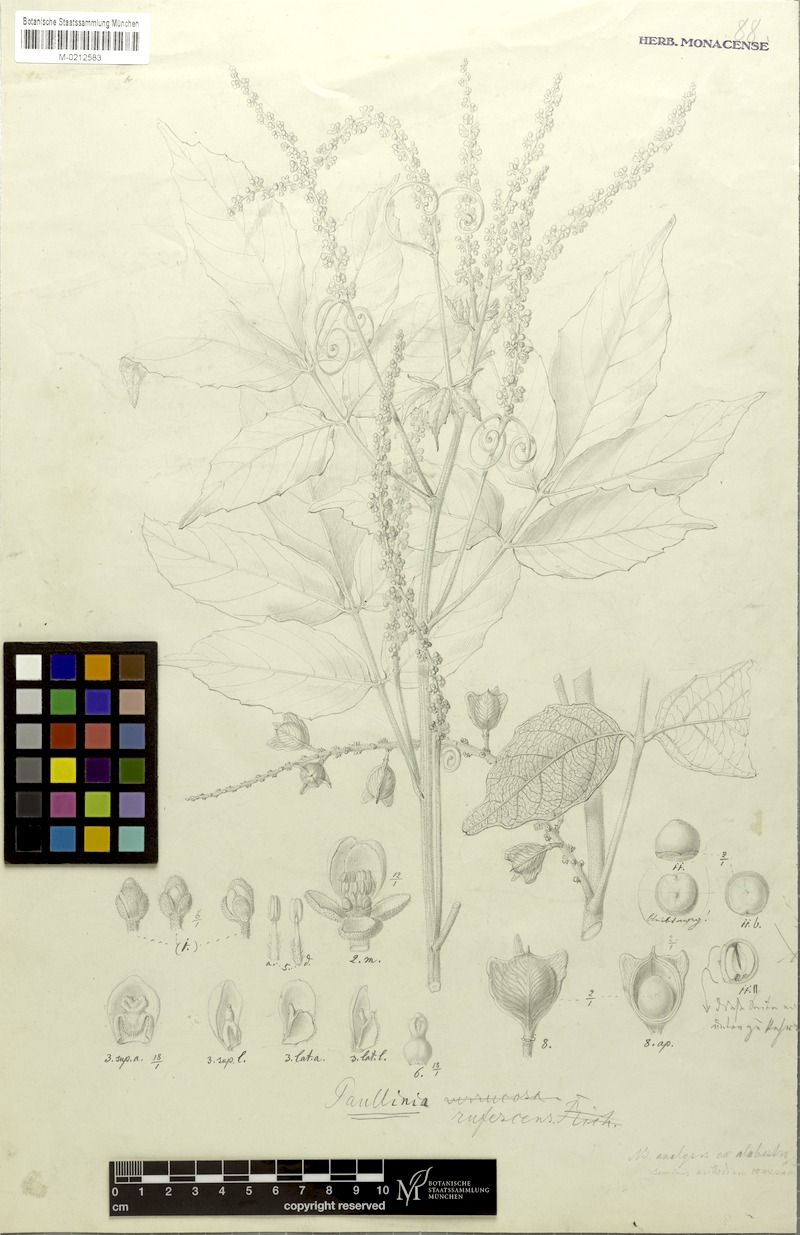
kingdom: Plantae
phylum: Tracheophyta
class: Magnoliopsida
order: Sapindales
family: Sapindaceae
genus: Paullinia
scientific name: Paullinia rufescens
